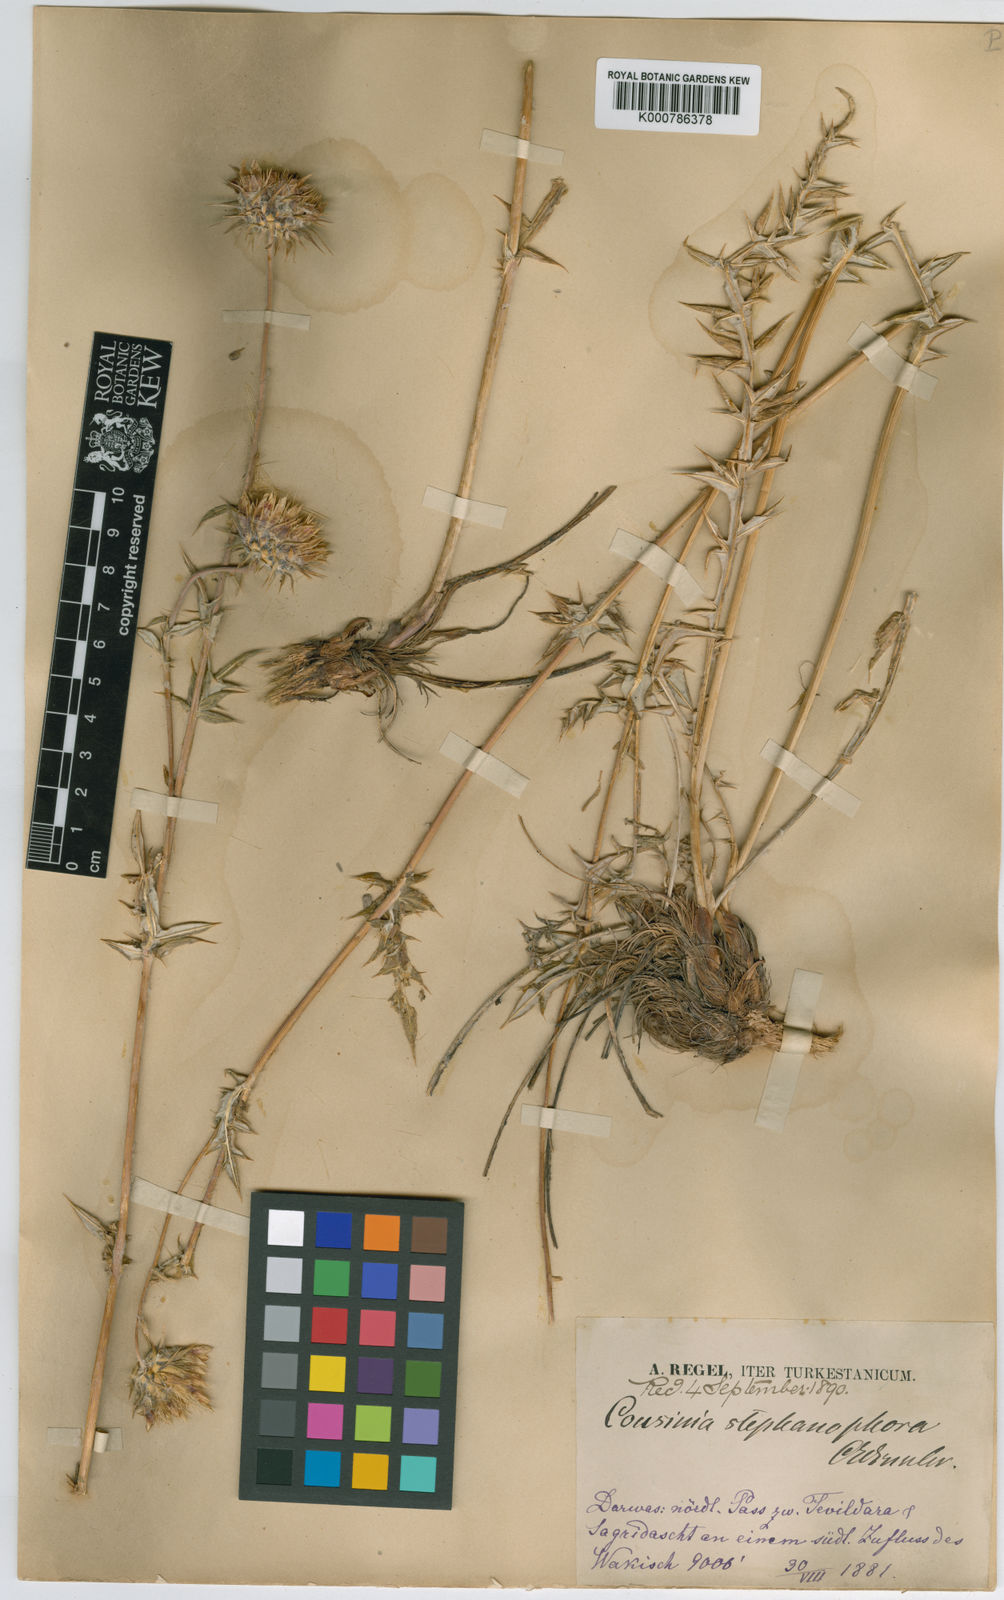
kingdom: Plantae
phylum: Tracheophyta
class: Magnoliopsida
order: Asterales
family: Asteraceae
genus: Cousinia
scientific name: Cousinia stephanophora
